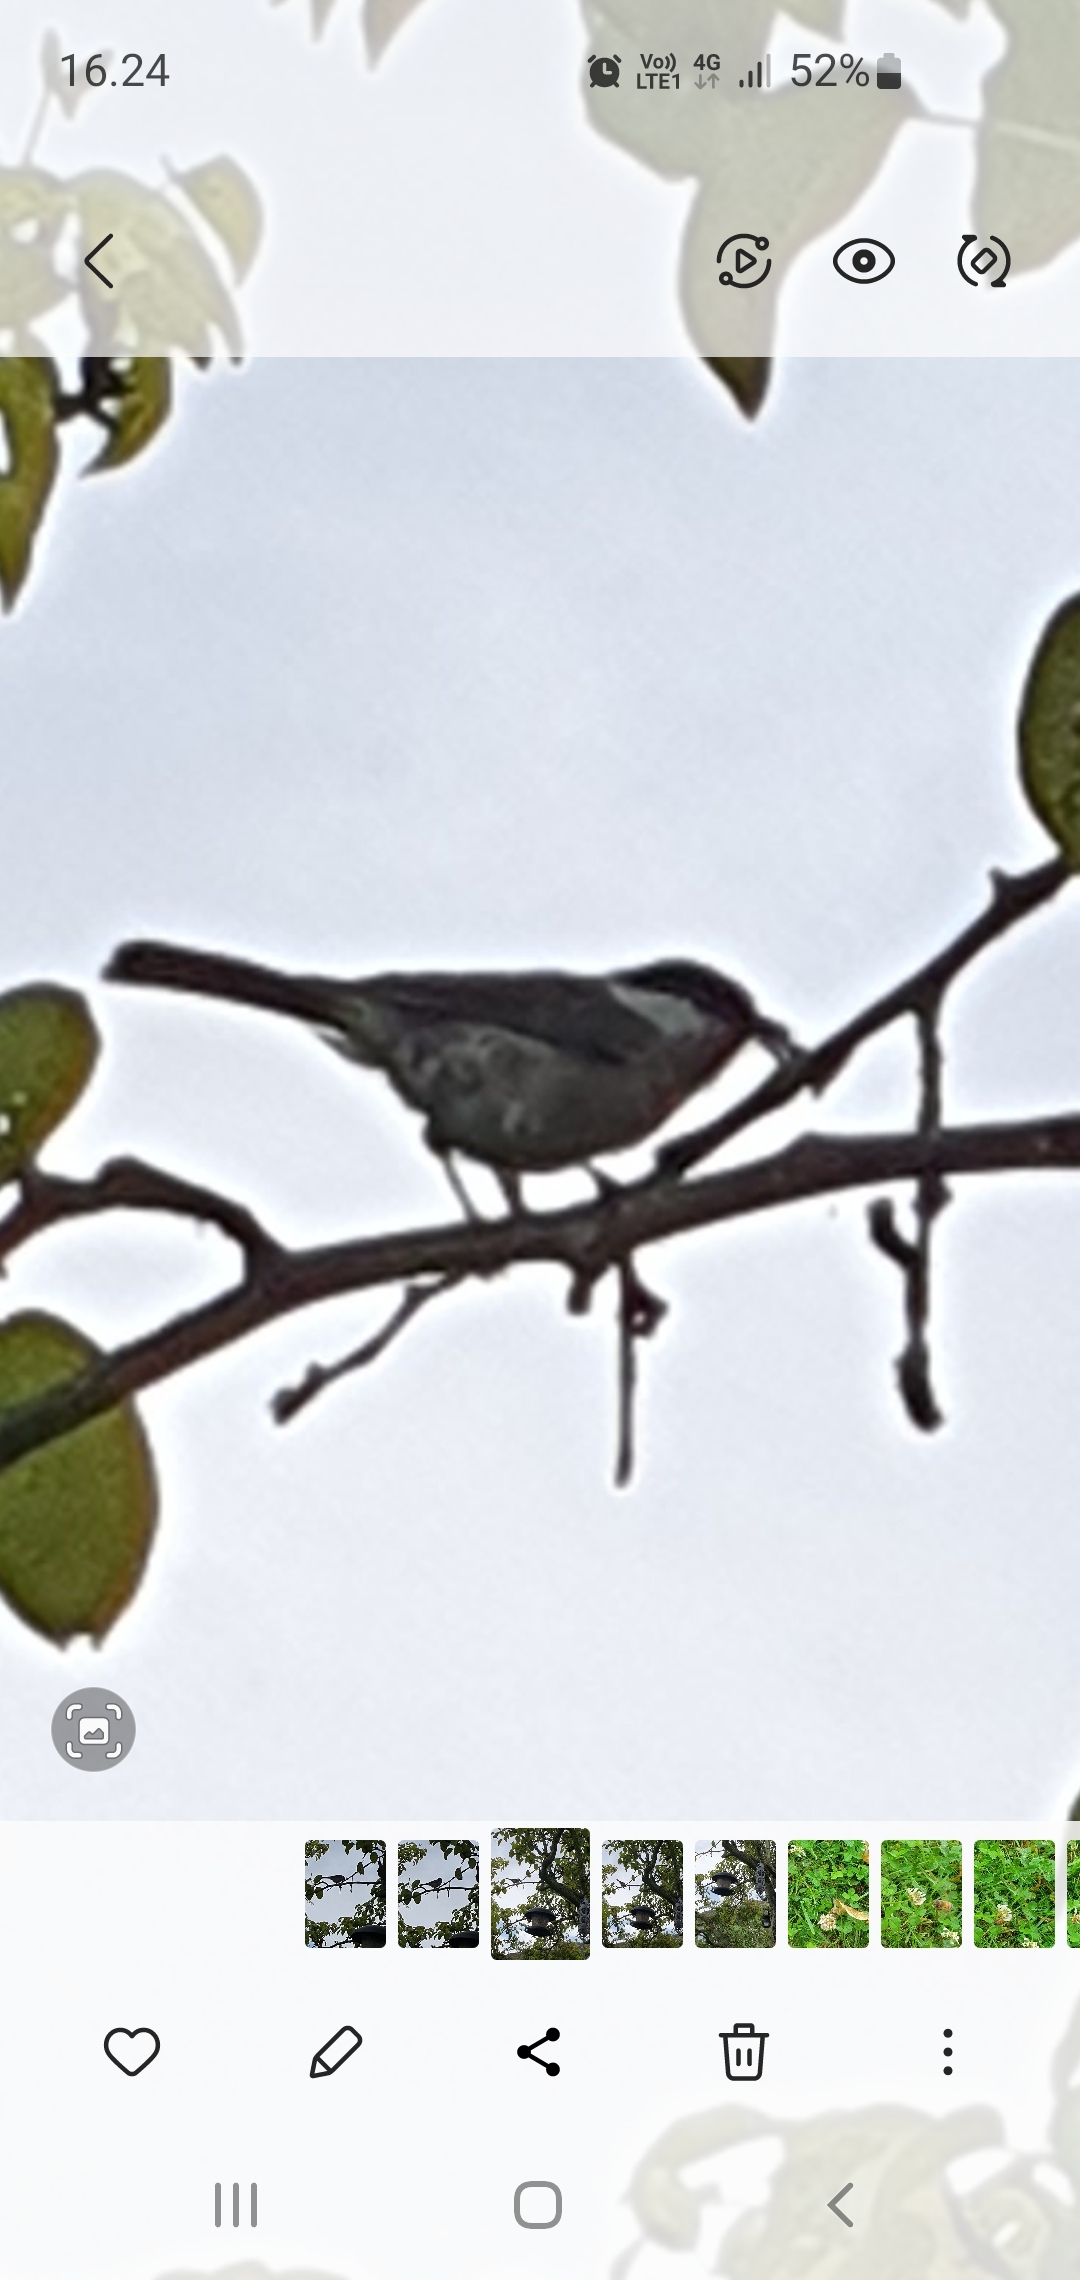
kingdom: Animalia
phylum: Chordata
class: Aves
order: Passeriformes
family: Paridae
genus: Poecile
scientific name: Poecile palustris
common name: Sumpmejse
